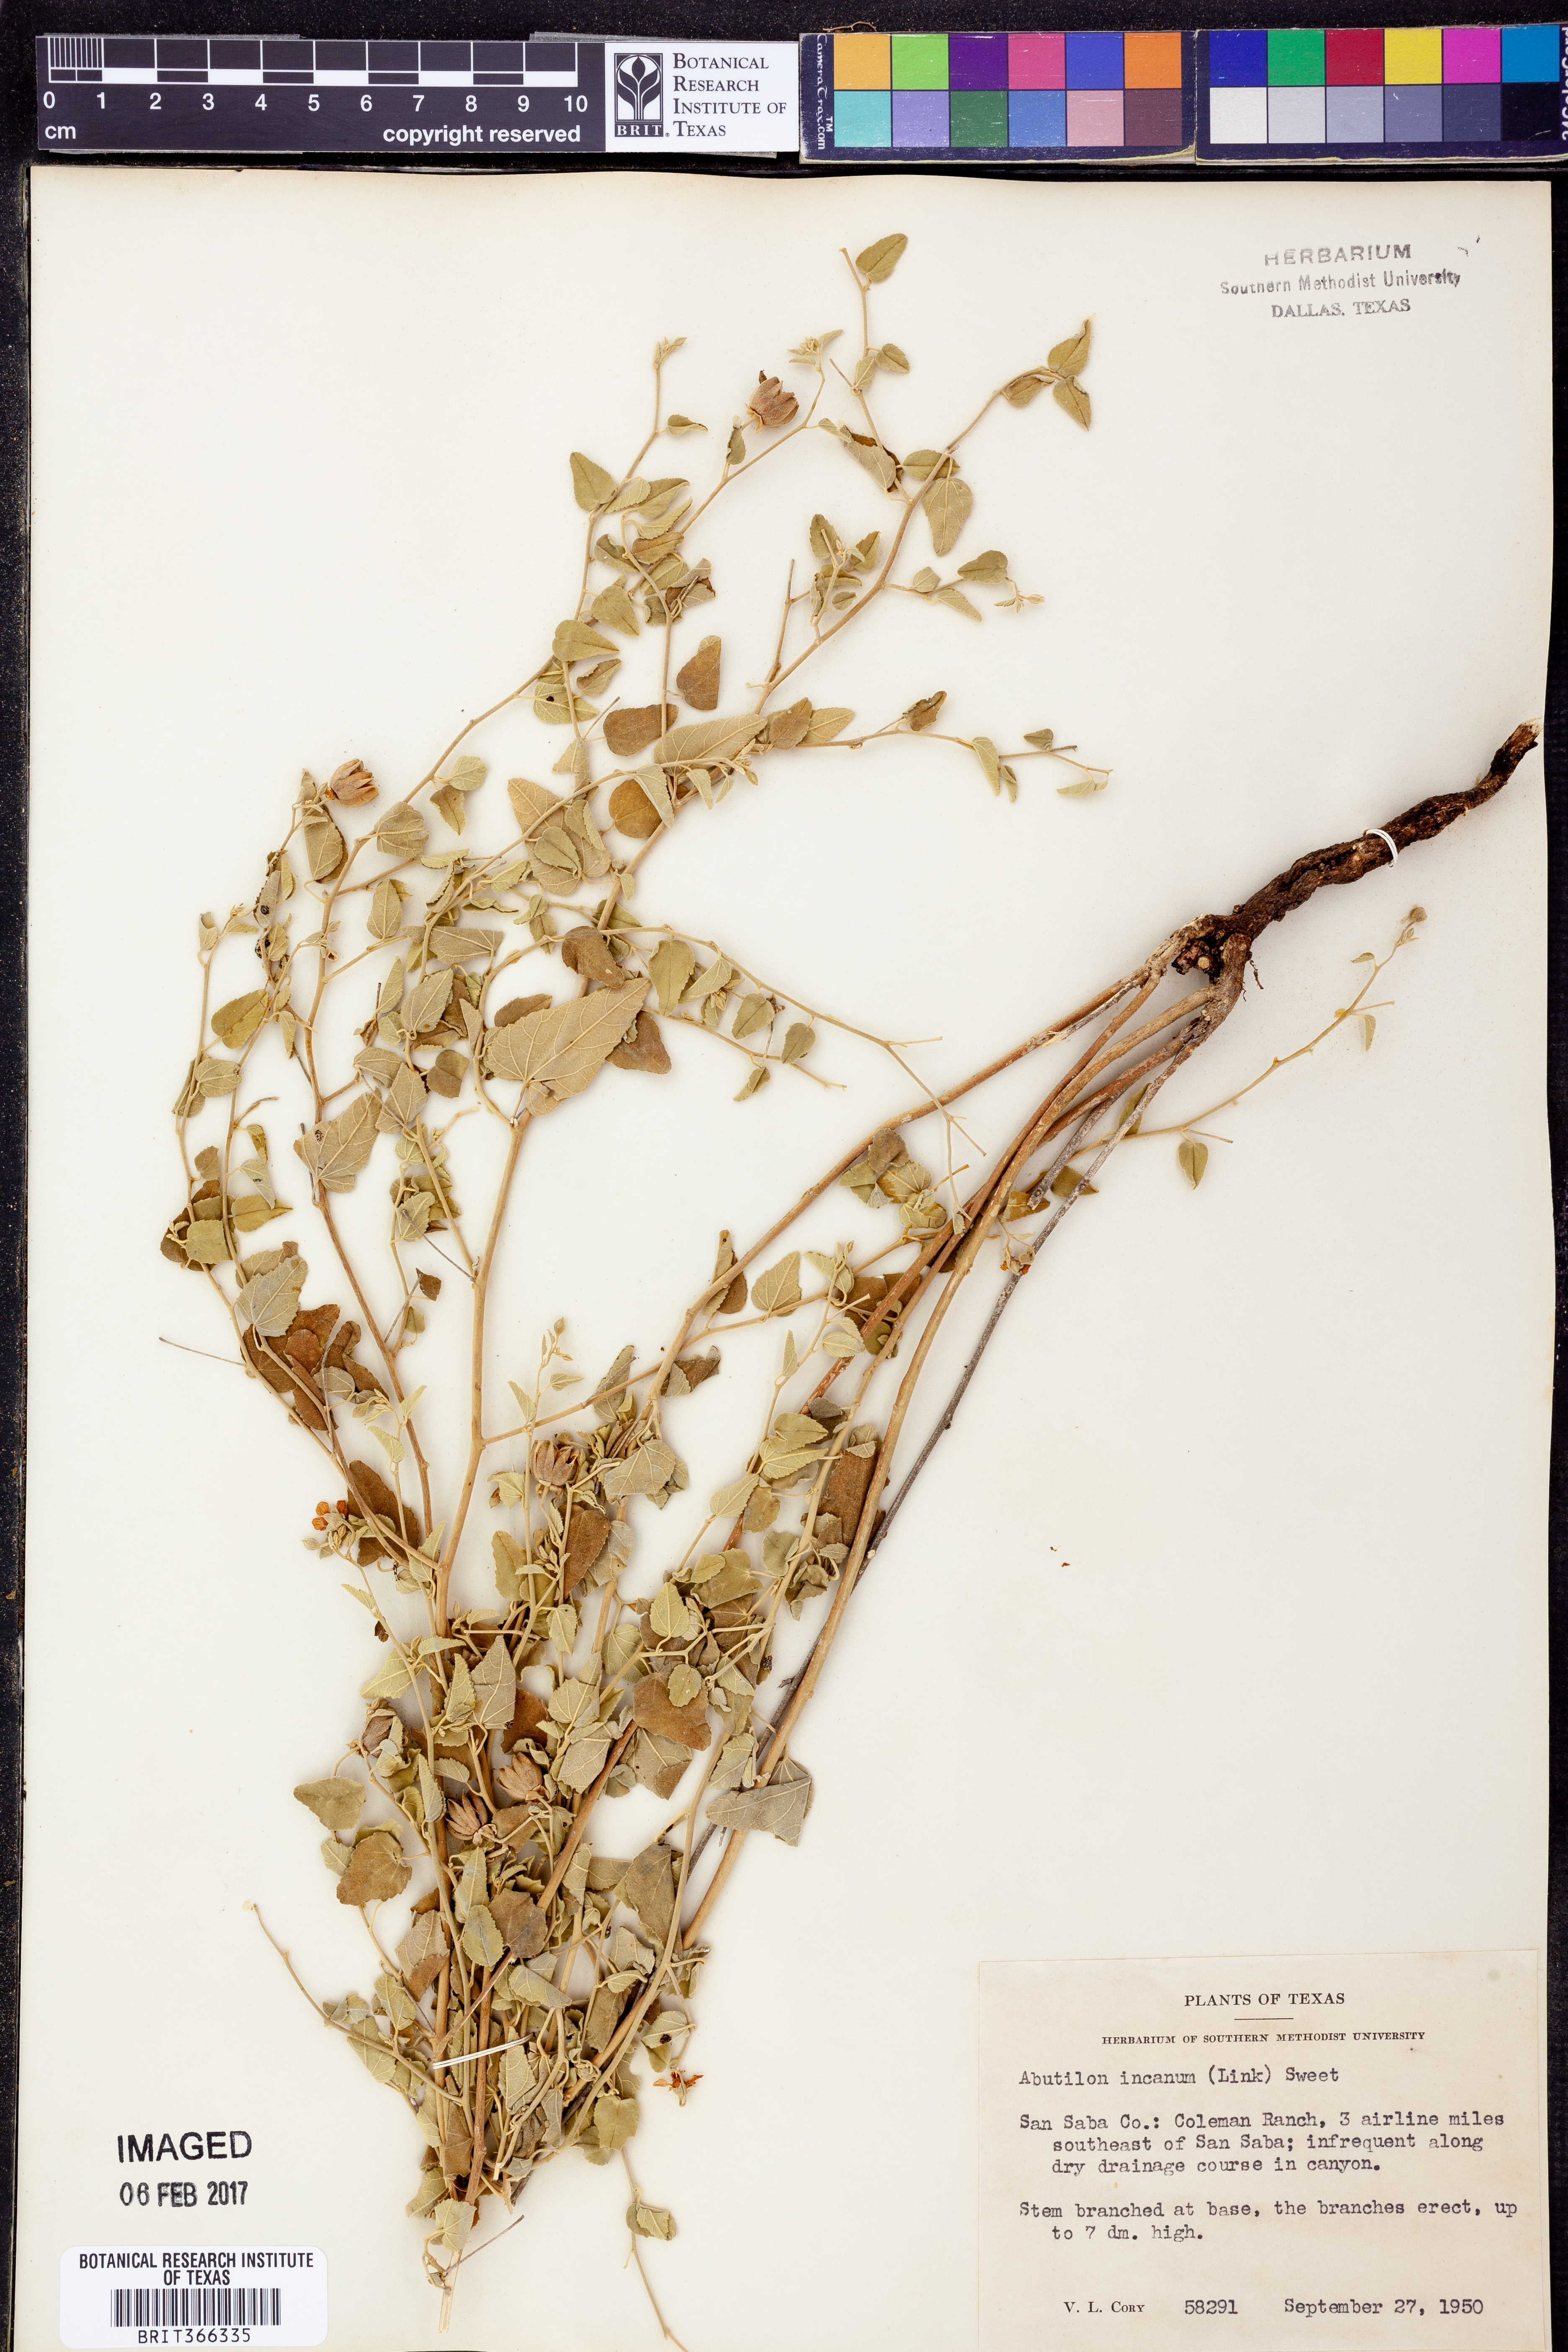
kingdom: Plantae
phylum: Tracheophyta
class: Magnoliopsida
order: Malvales
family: Malvaceae
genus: Abutilon
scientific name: Abutilon incanum
